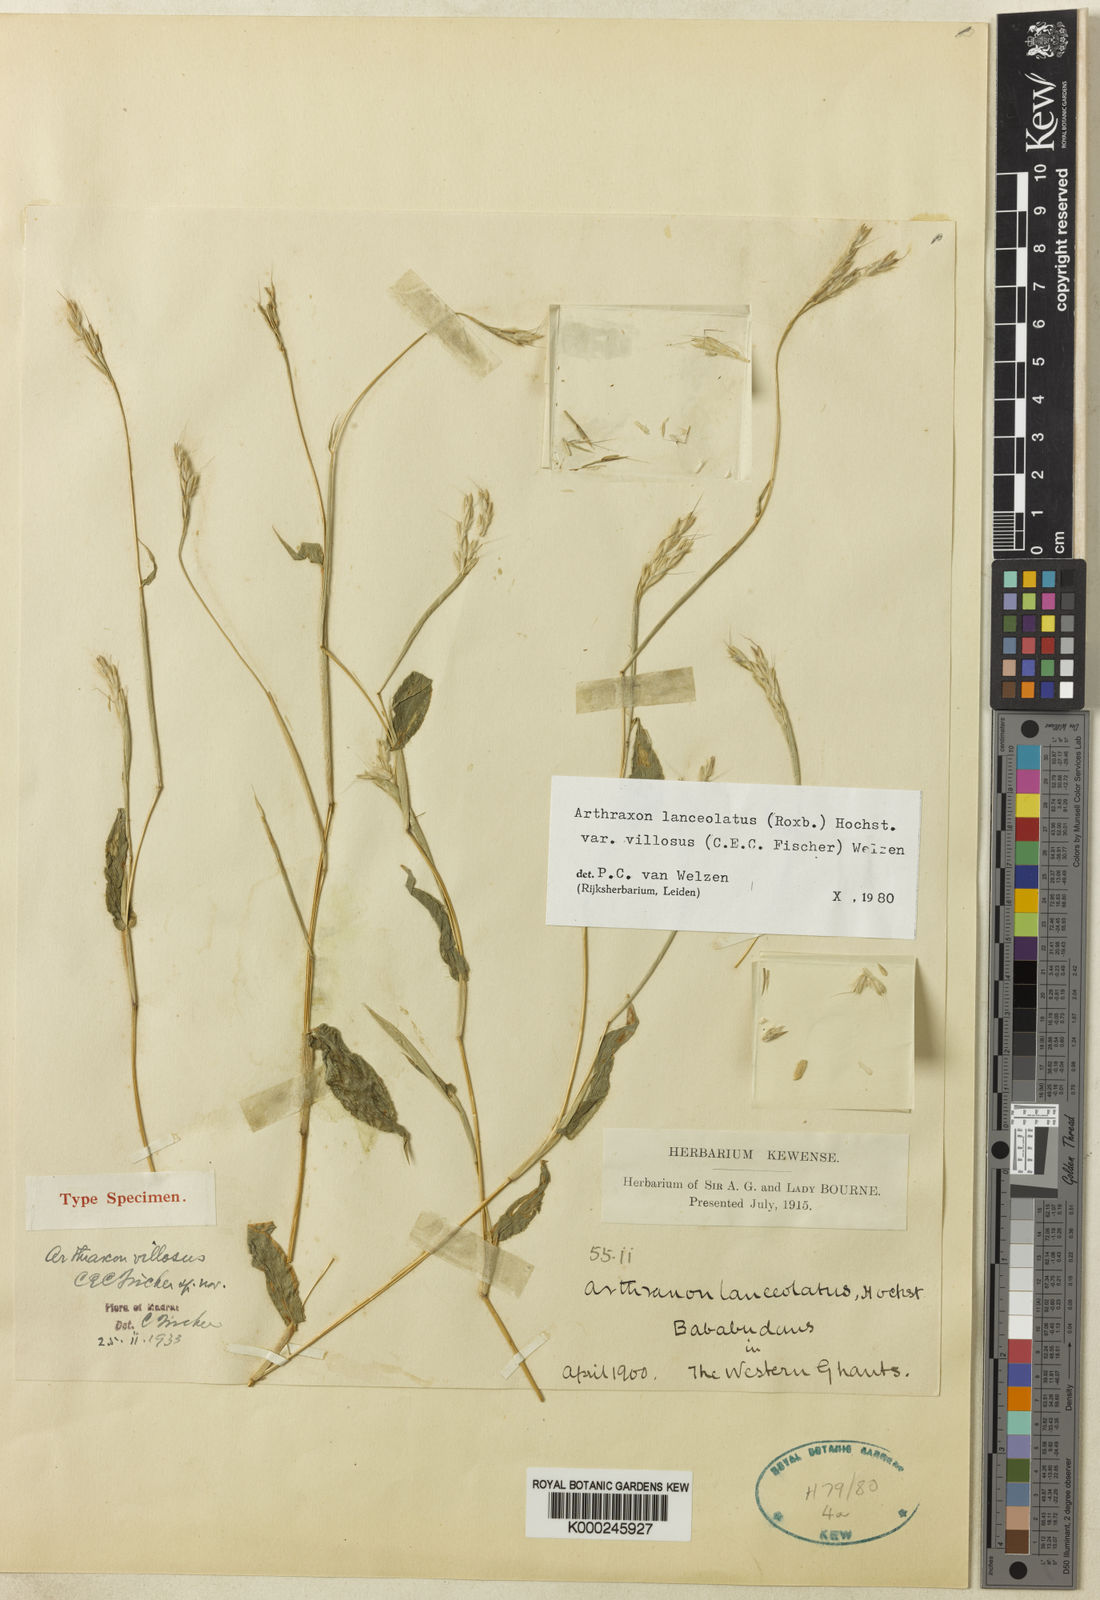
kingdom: Plantae
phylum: Tracheophyta
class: Liliopsida
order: Poales
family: Poaceae
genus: Arthraxon
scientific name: Arthraxon villosus
